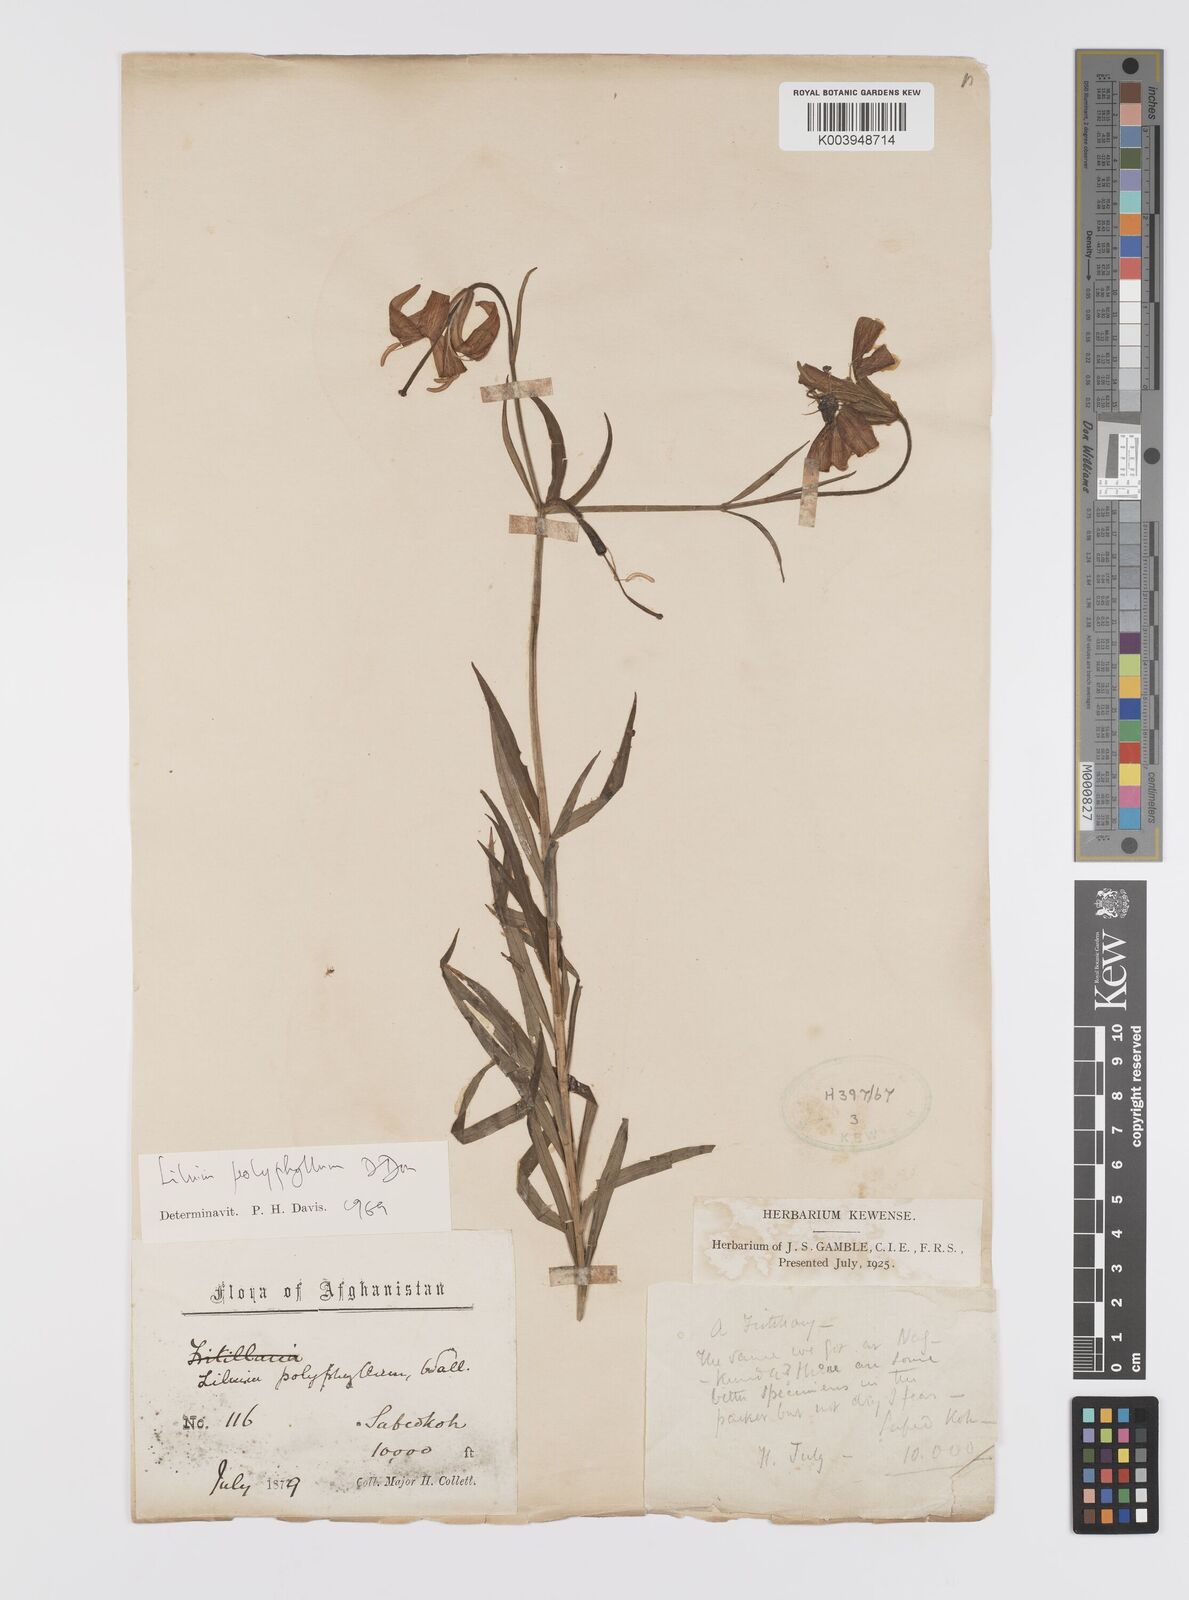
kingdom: Plantae
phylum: Tracheophyta
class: Liliopsida
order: Liliales
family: Liliaceae
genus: Lilium
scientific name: Lilium polyphyllum
